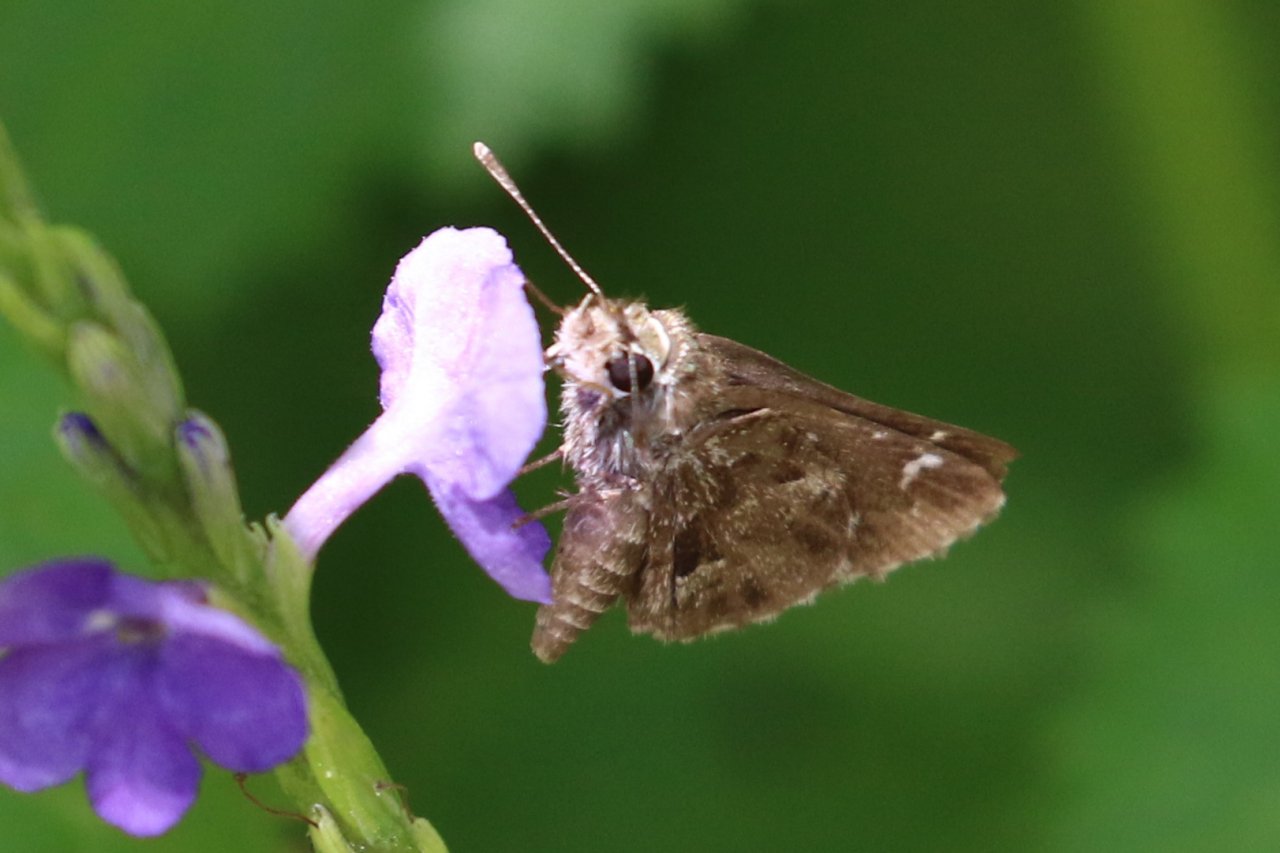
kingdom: Animalia
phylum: Arthropoda
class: Insecta
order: Lepidoptera
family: Hesperiidae
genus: Mastor
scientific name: Mastor nysa
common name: Nysa Roadside-Skipper
